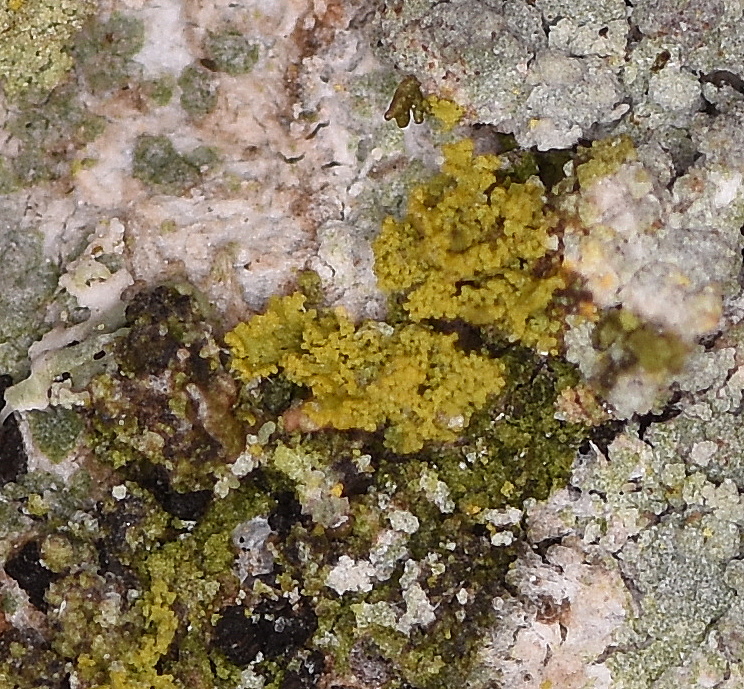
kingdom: Fungi
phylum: Ascomycota
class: Candelariomycetes
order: Candelariales
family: Candelariaceae
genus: Candelaria
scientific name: Candelaria pacifica
